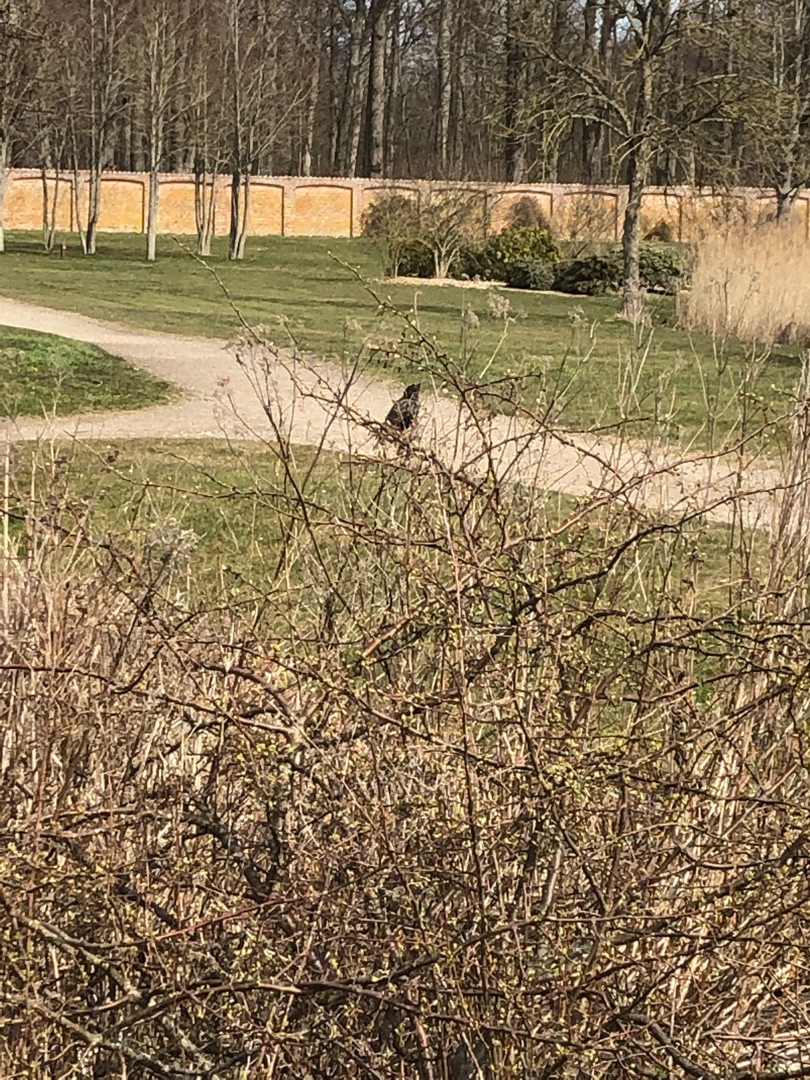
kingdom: Animalia
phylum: Chordata
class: Aves
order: Passeriformes
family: Sturnidae
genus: Sturnus
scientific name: Sturnus vulgaris
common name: Stær
